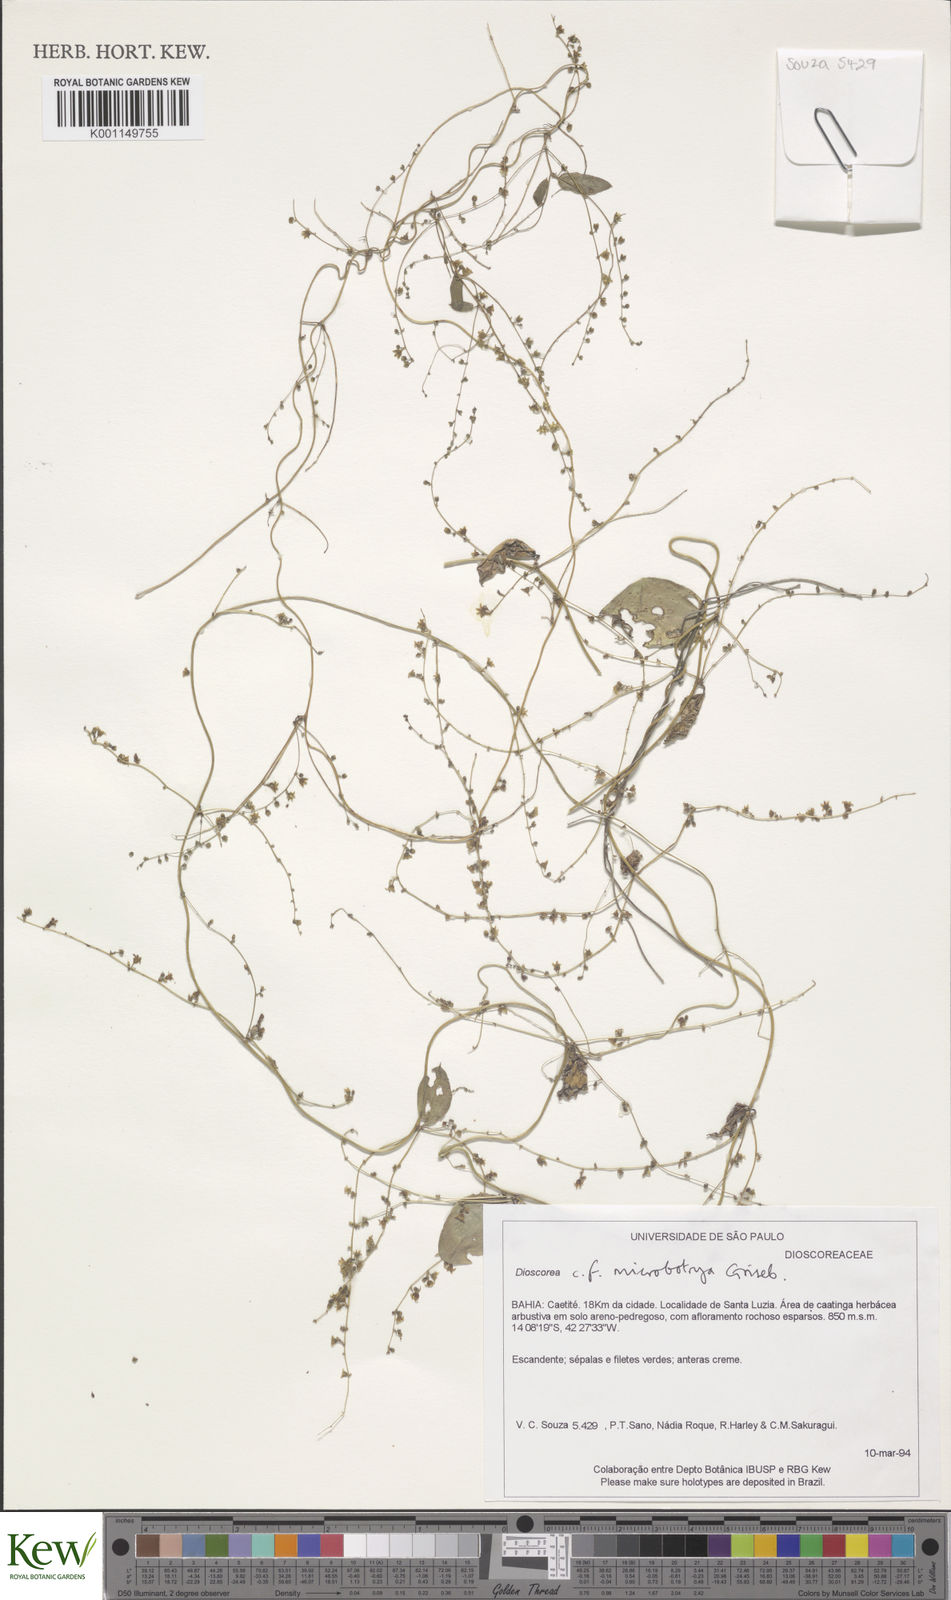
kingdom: Plantae
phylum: Tracheophyta
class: Liliopsida
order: Dioscoreales
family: Dioscoreaceae
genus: Dioscorea
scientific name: Dioscorea microbotrya
